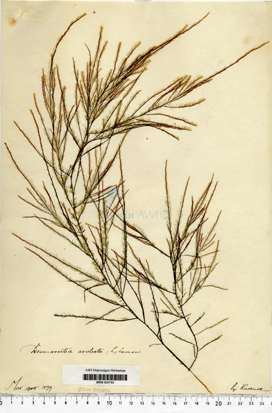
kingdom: Chromista
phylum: Ochrophyta
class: Phaeophyceae
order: Desmarestiales
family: Desmarestiaceae
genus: Desmarestia
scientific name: Desmarestia aculeata
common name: Witch's hair
